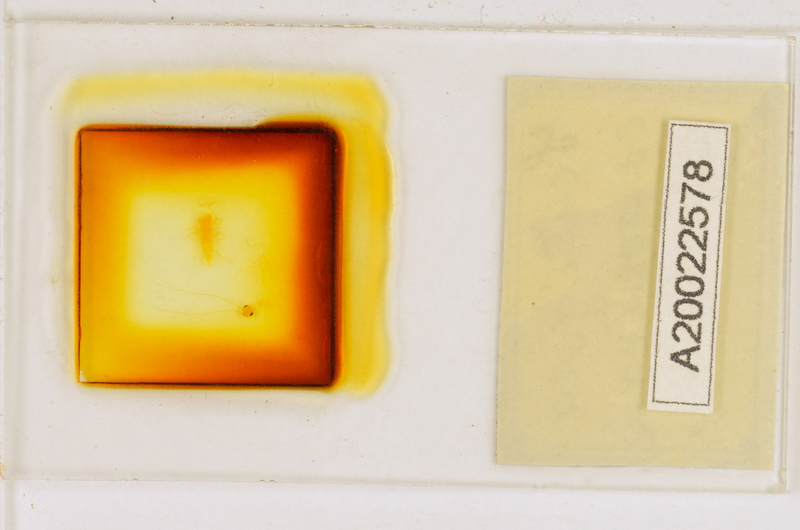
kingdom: Animalia
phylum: Arthropoda
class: Chilopoda
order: Scutigeromorpha
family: Scutigeridae
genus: Scutigera
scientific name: Scutigera coleoptrata
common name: House centipede
